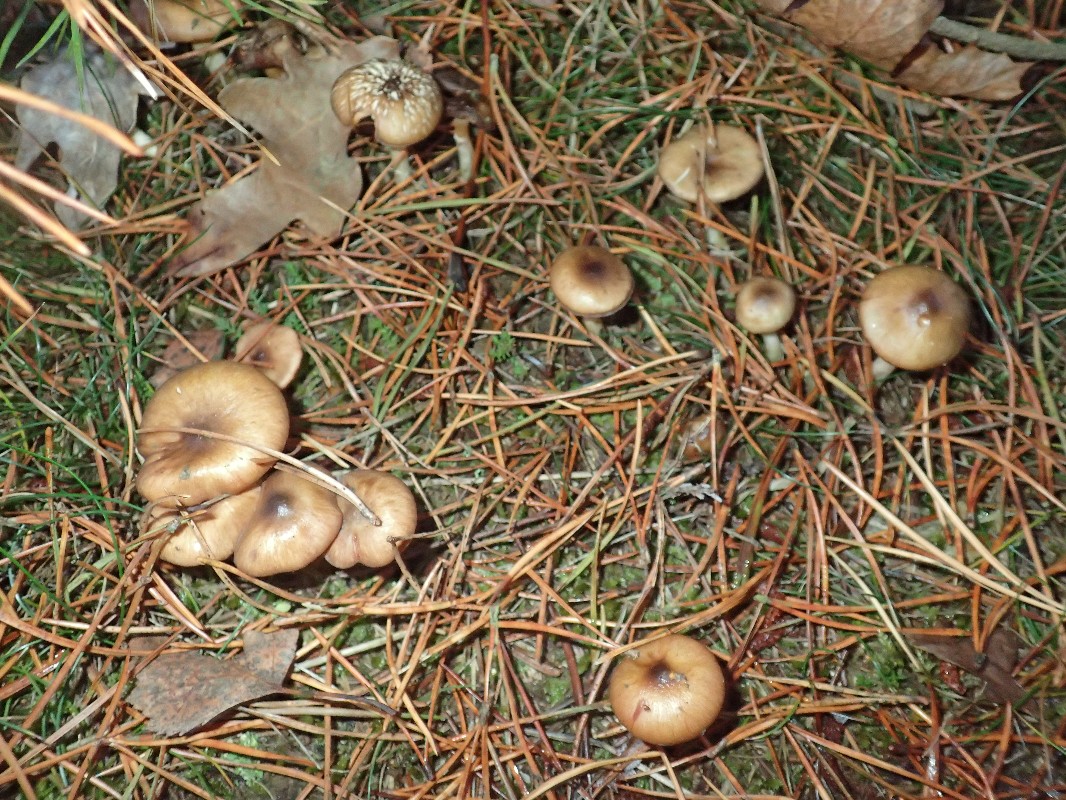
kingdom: Fungi
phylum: Basidiomycota
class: Agaricomycetes
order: Agaricales
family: Hygrophoraceae
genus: Hygrophorus
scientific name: Hygrophorus hypothejus
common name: frost-sneglehat
